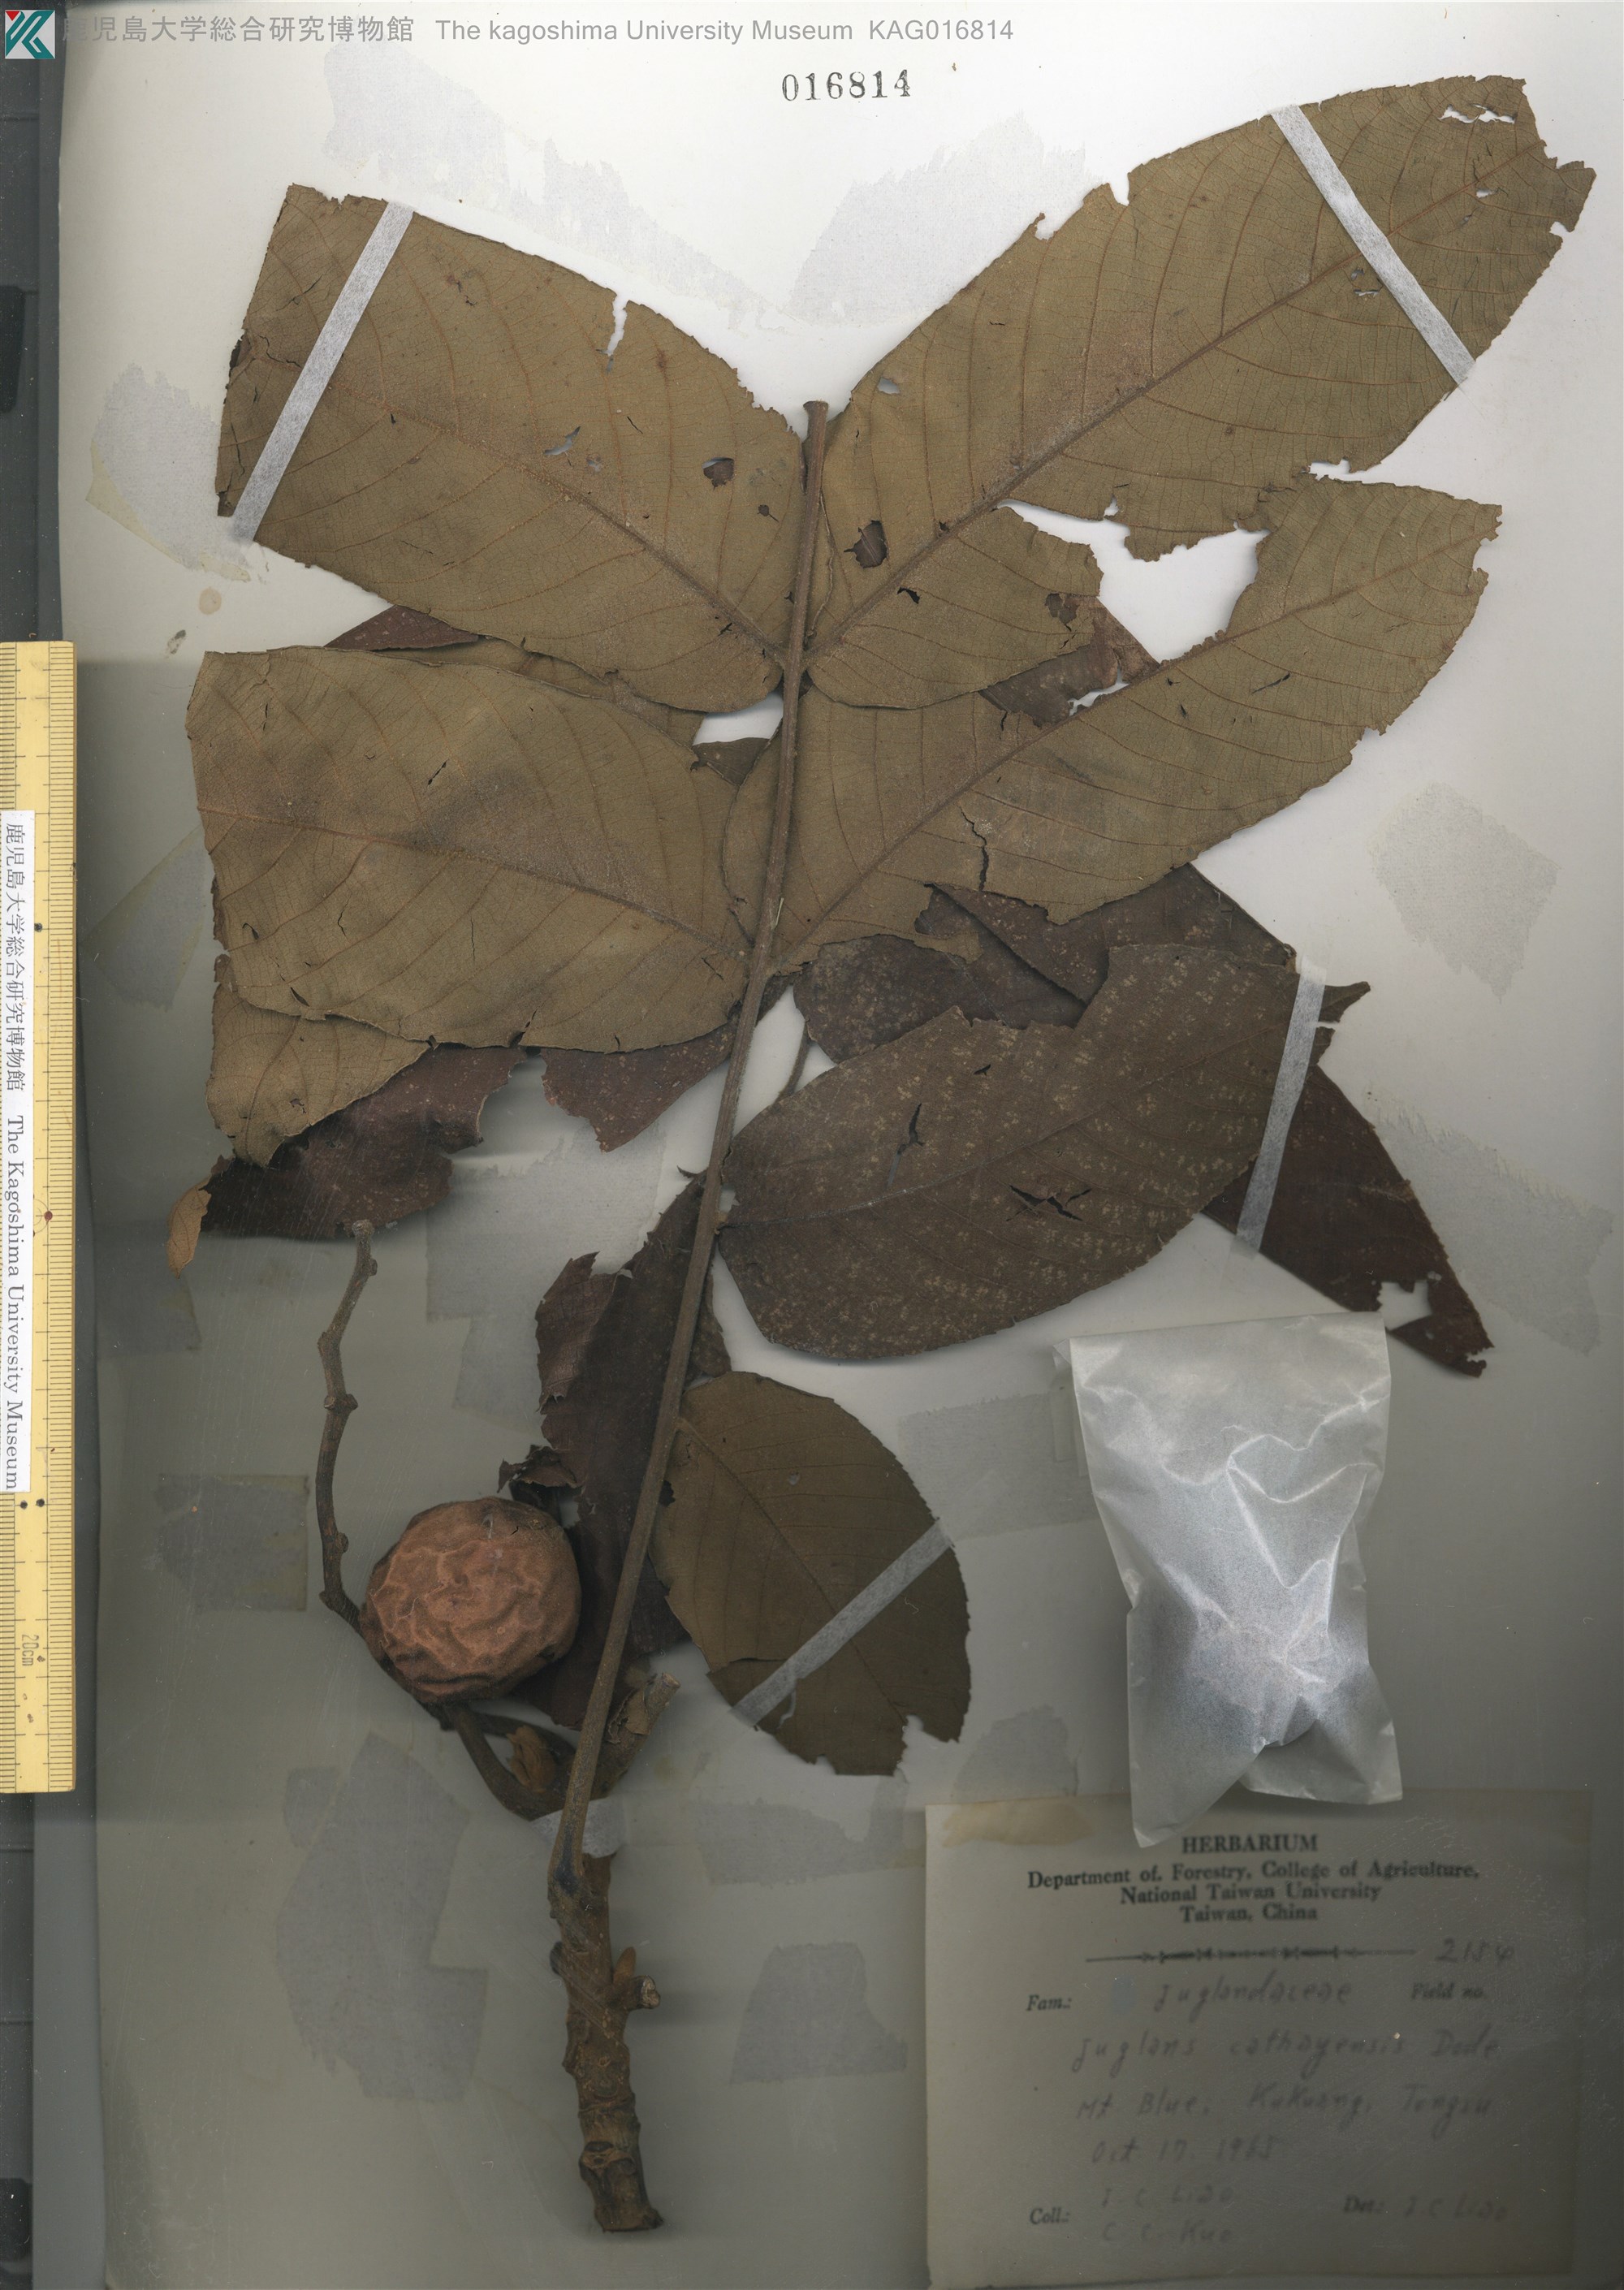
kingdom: Plantae
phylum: Tracheophyta
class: Magnoliopsida
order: Fagales
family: Juglandaceae
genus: Juglans
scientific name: Juglans mandshurica
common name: Manchurian walnut
